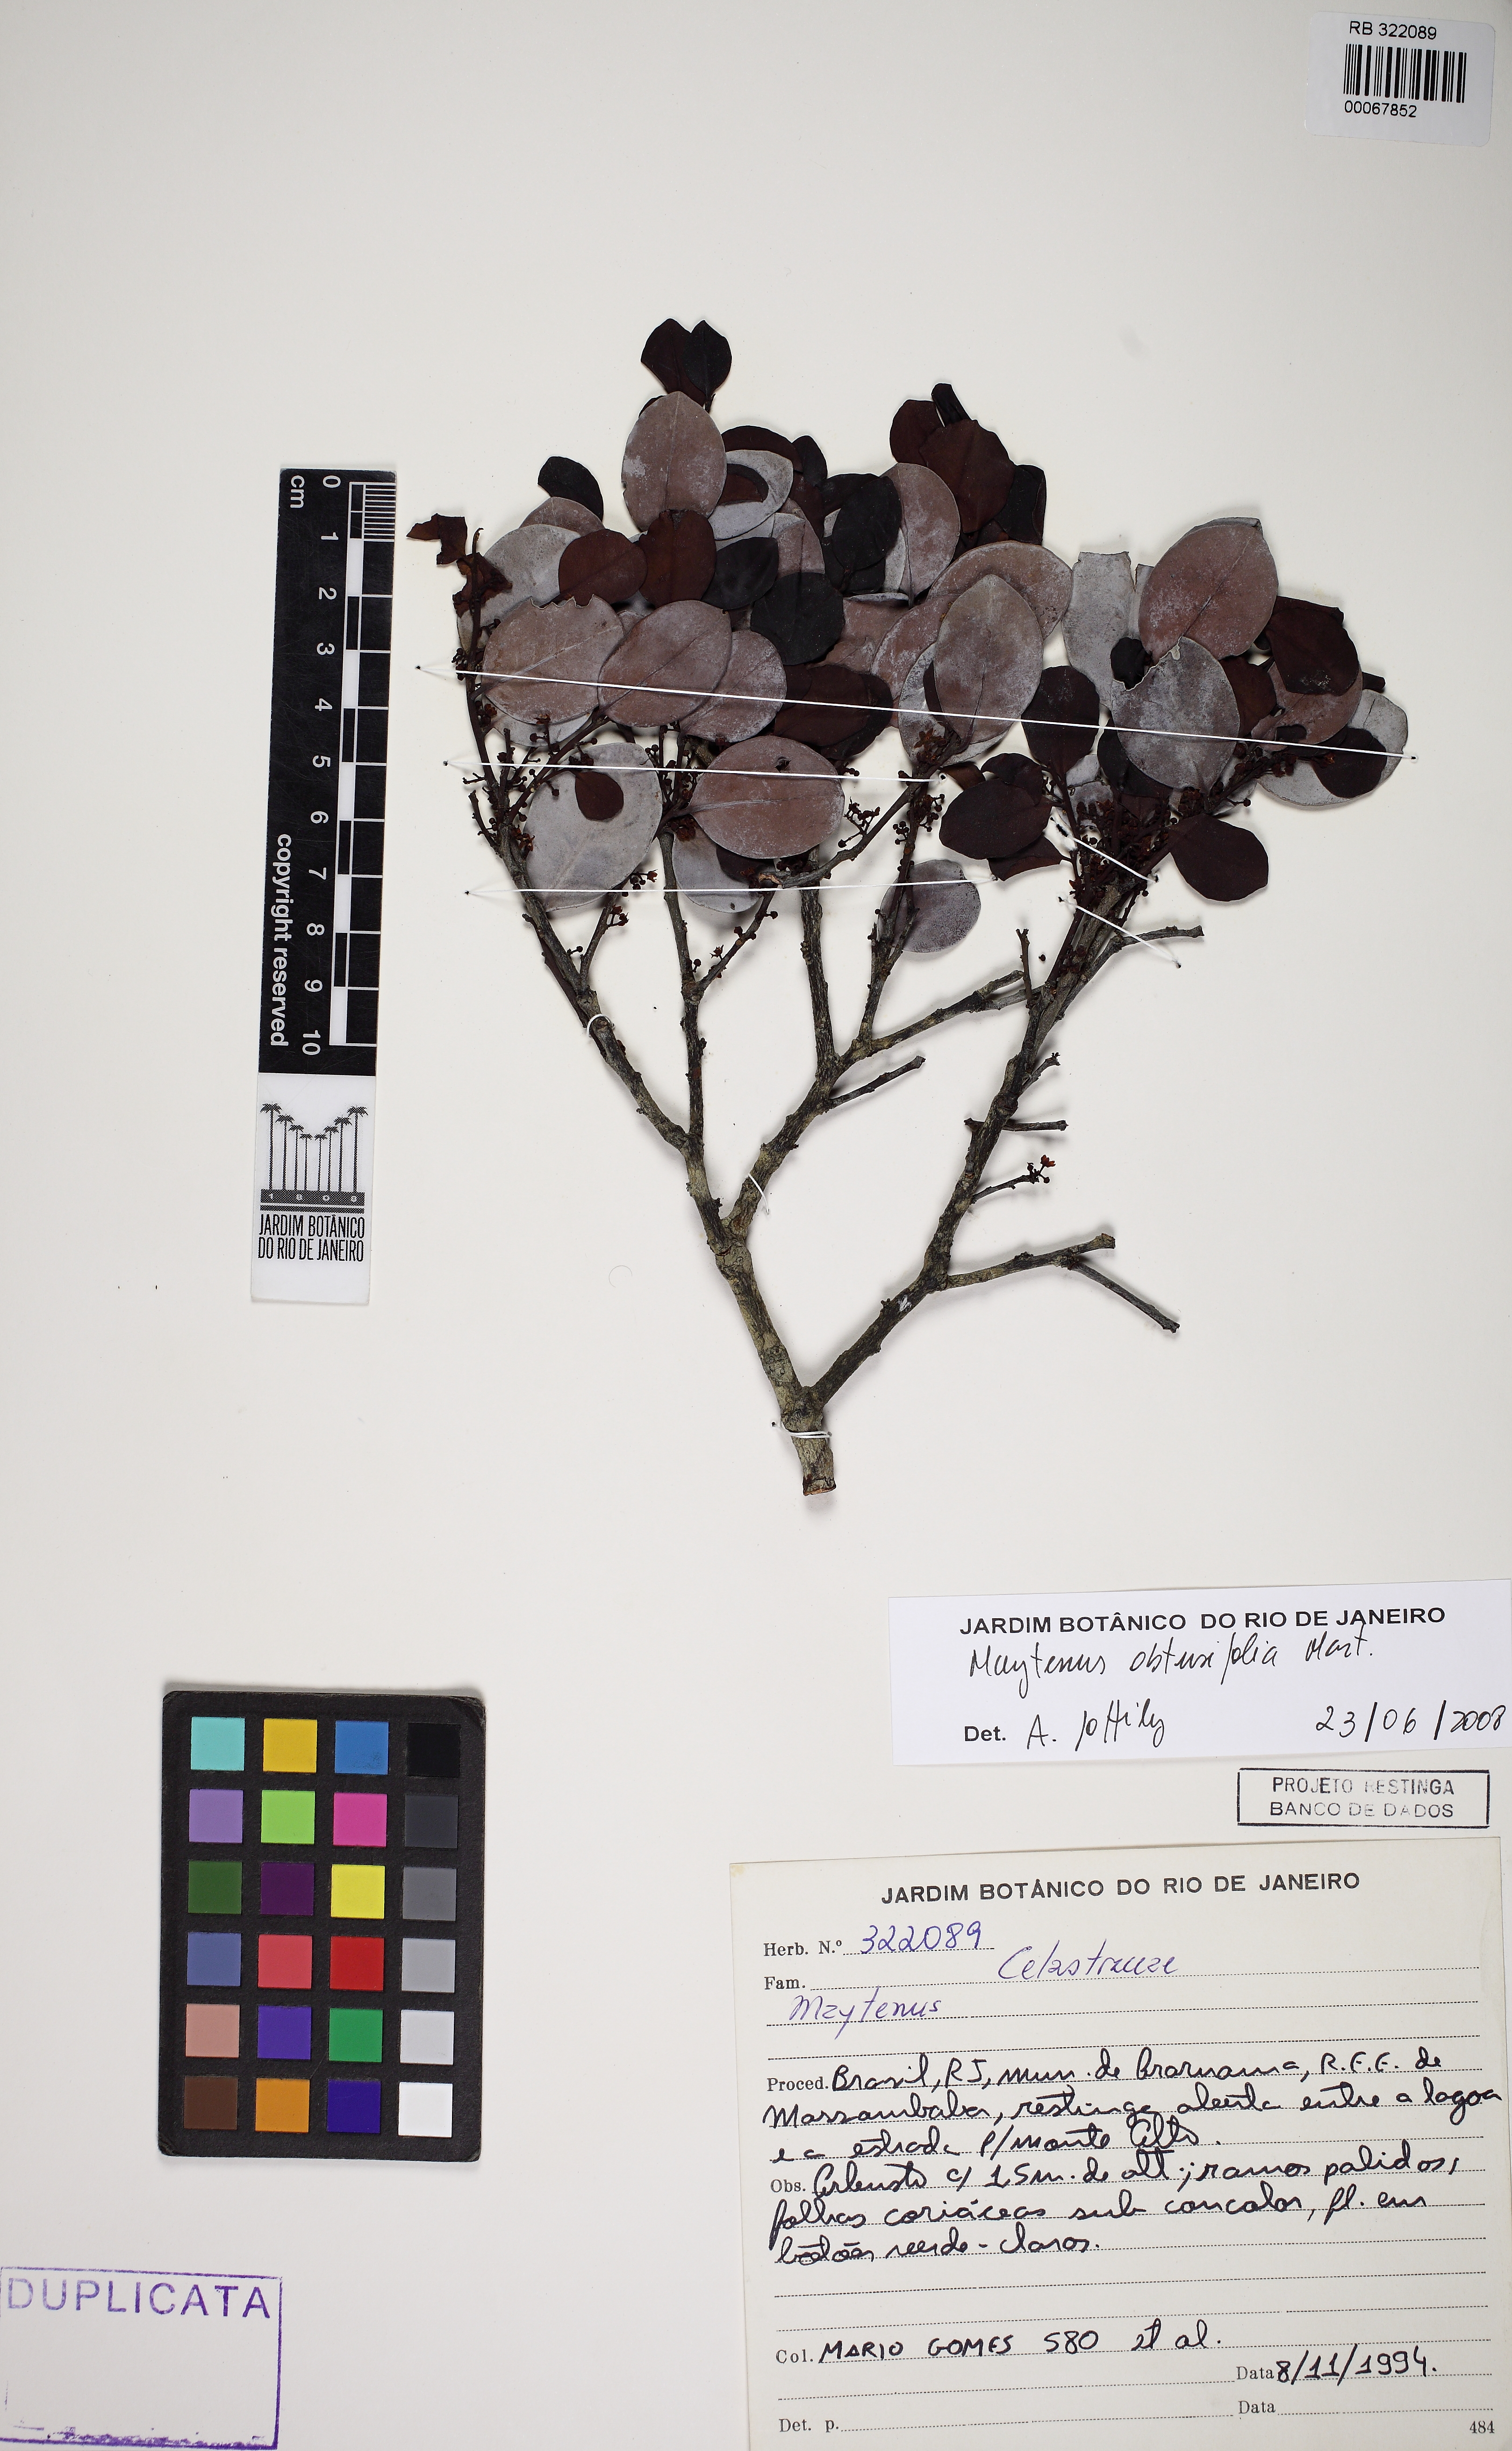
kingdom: Plantae
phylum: Tracheophyta
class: Magnoliopsida
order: Celastrales
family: Celastraceae
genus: Monteverdia
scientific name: Monteverdia obtusifolia
